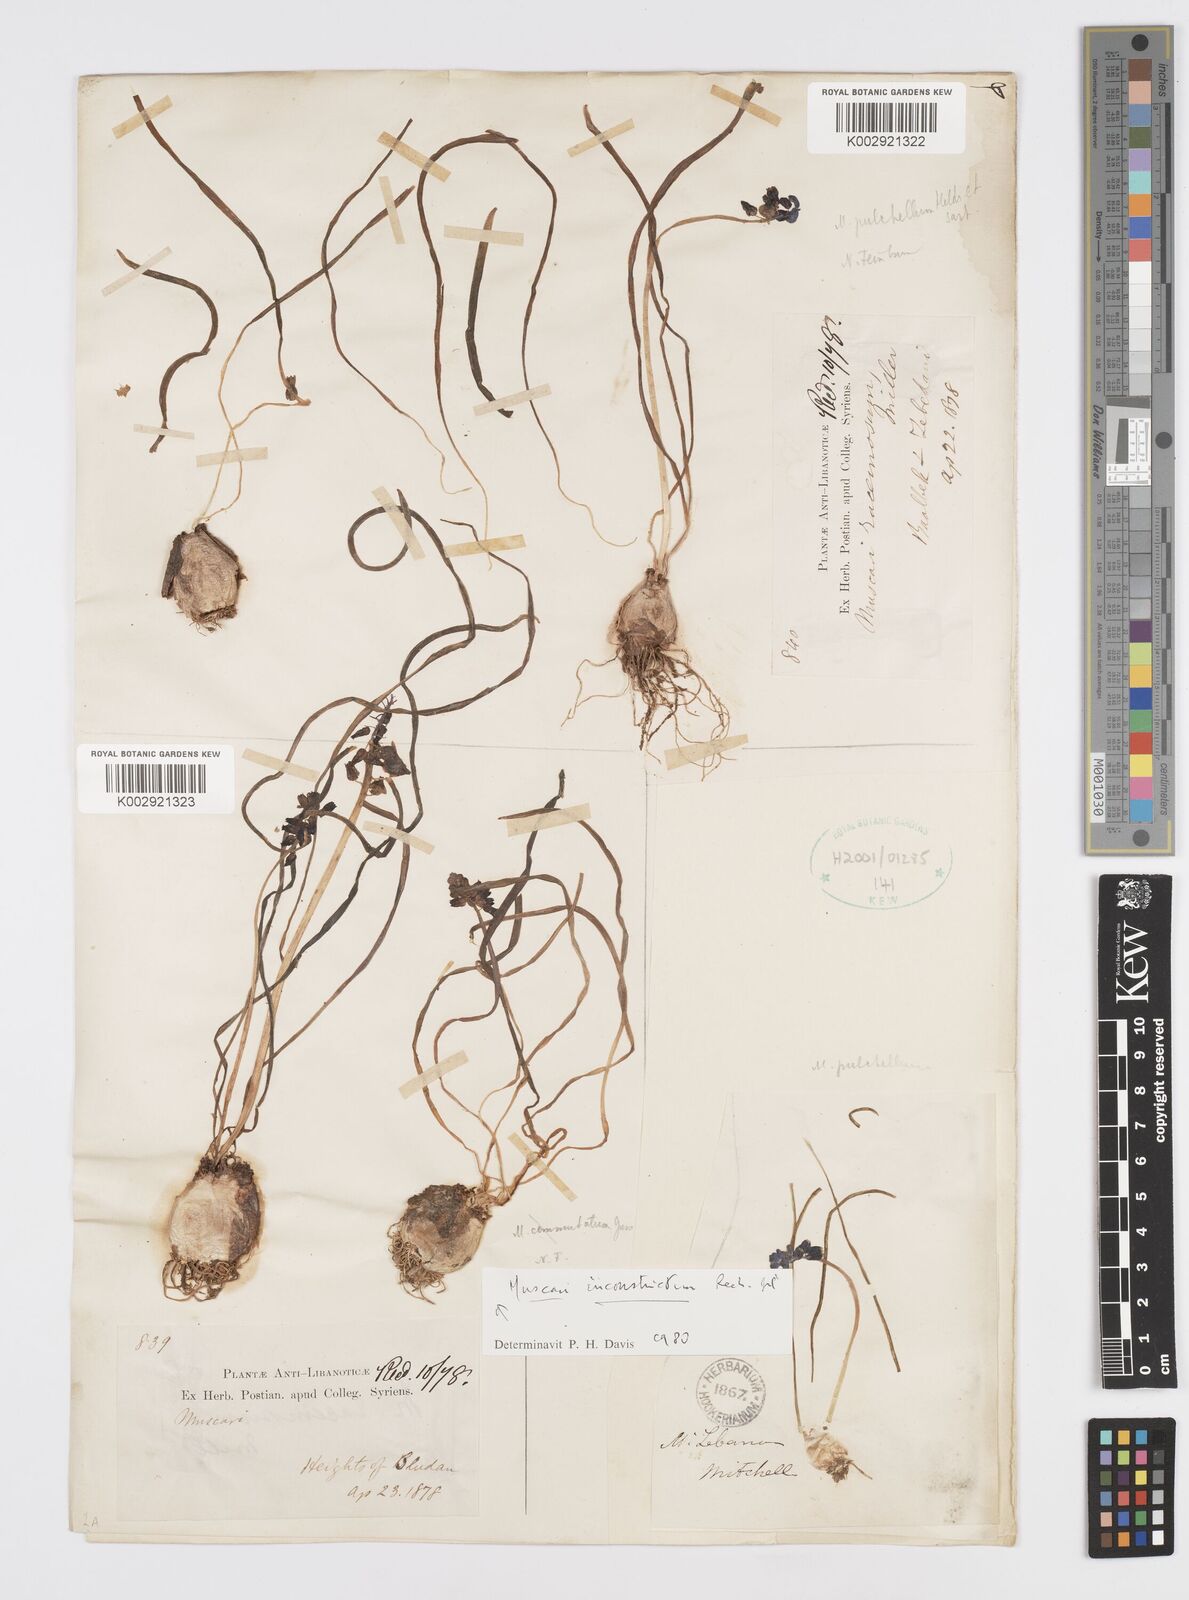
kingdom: Plantae
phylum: Tracheophyta
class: Liliopsida
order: Asparagales
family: Asparagaceae
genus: Muscari
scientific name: Muscari inconstrictum
